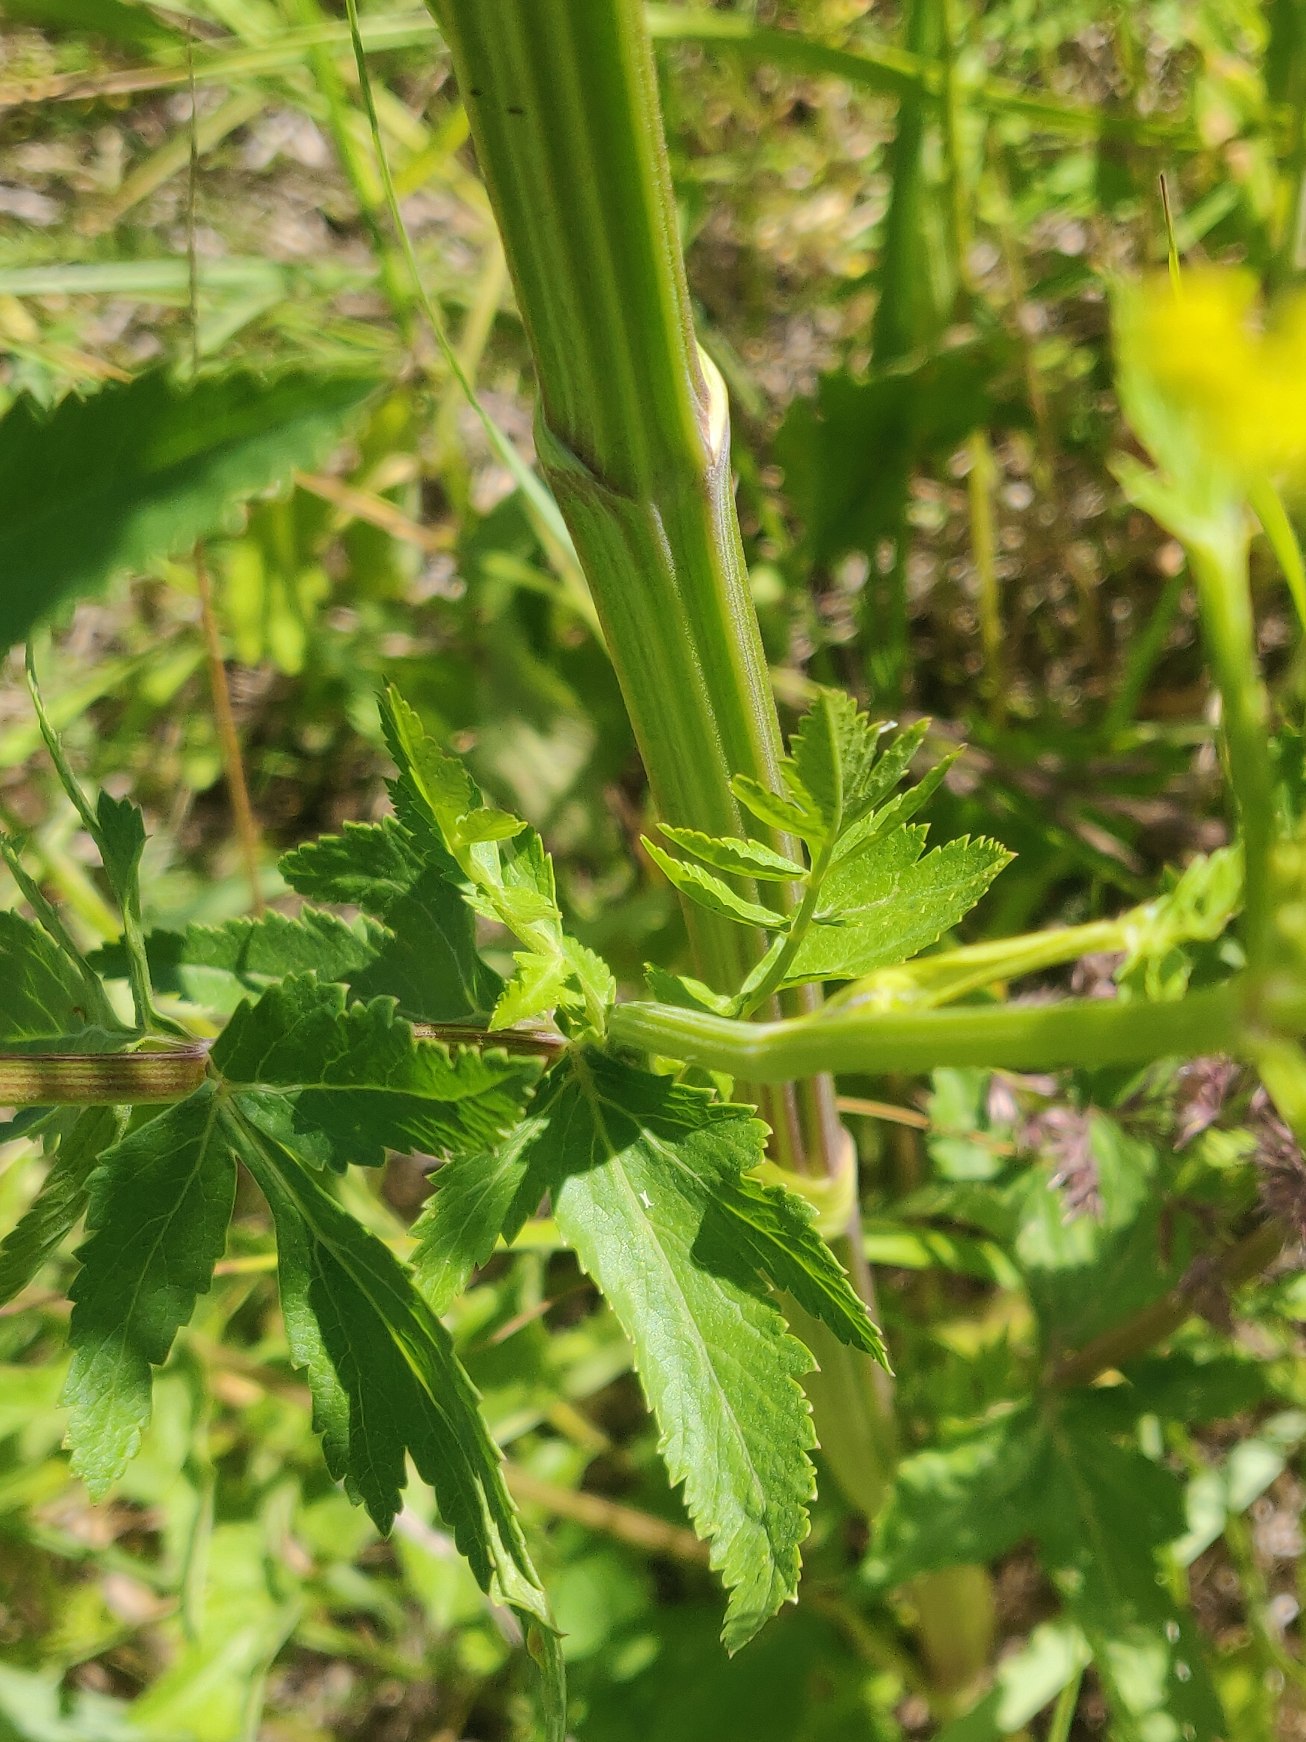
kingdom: Plantae
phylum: Tracheophyta
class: Magnoliopsida
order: Apiales
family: Apiaceae
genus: Pastinaca
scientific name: Pastinaca sativa
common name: Pastinak
